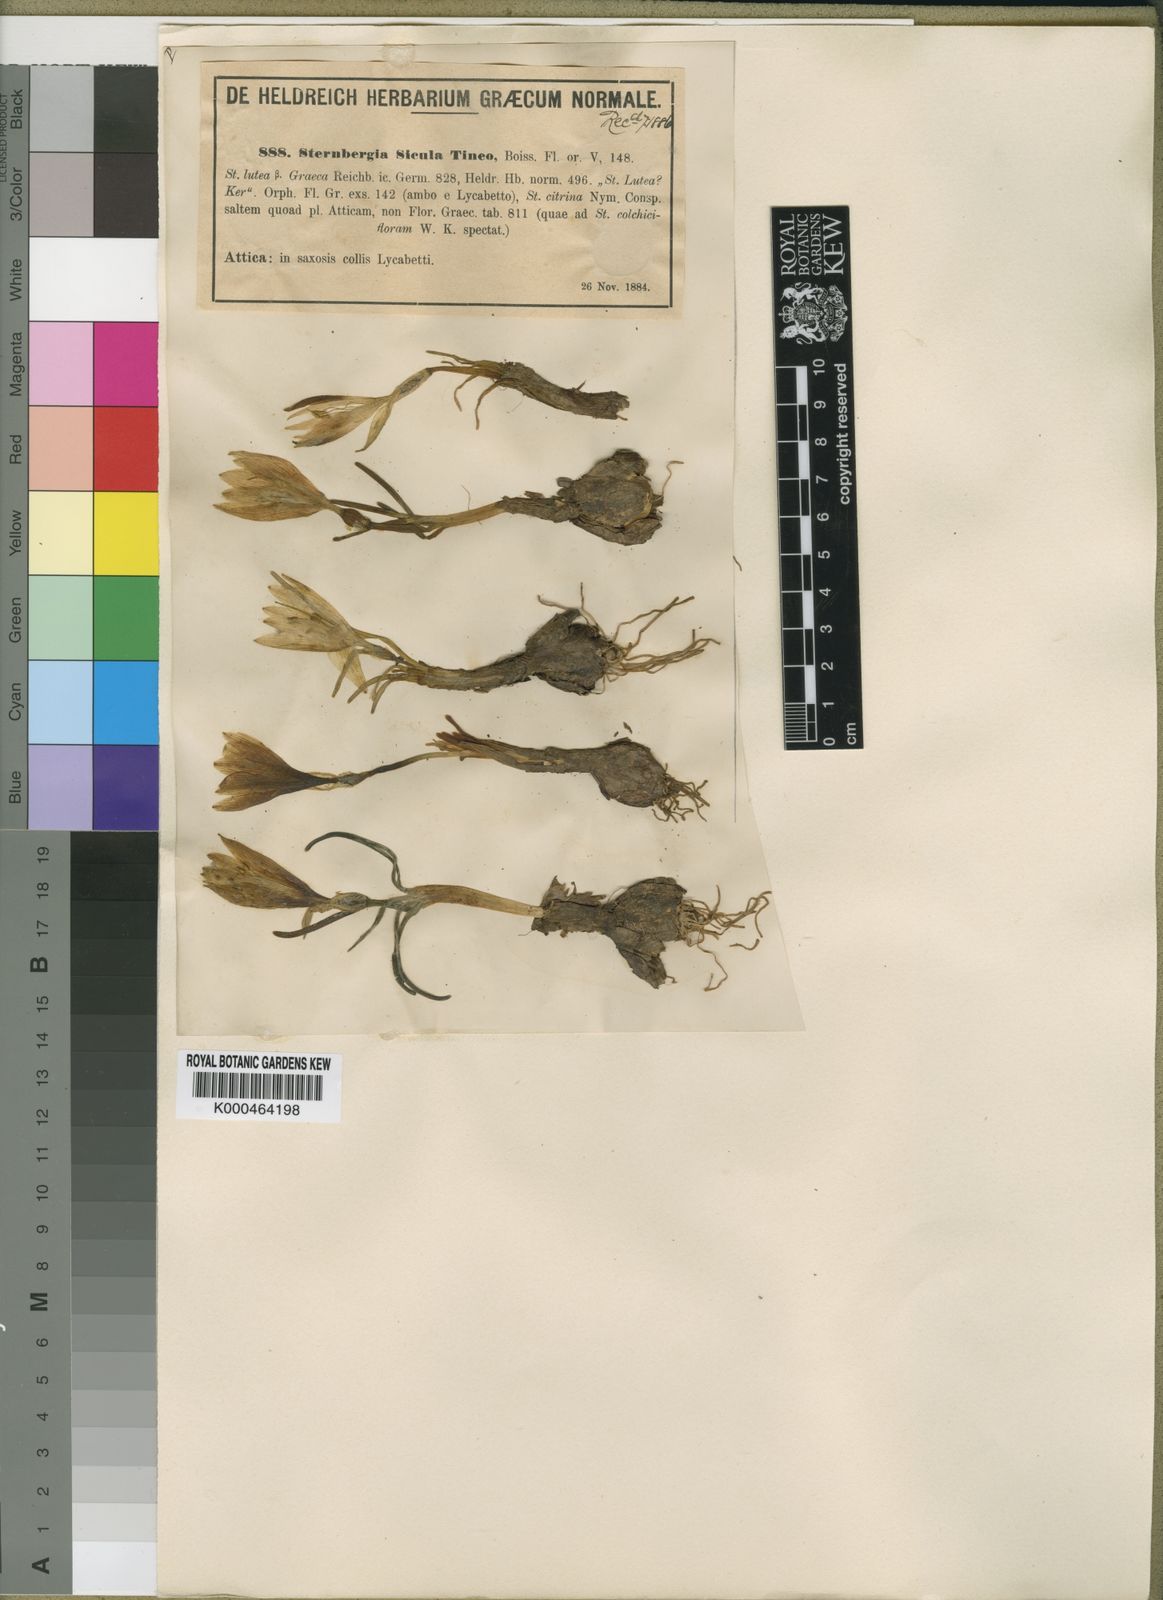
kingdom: Plantae
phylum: Tracheophyta
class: Liliopsida
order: Asparagales
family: Amaryllidaceae
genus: Sternbergia
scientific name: Sternbergia
